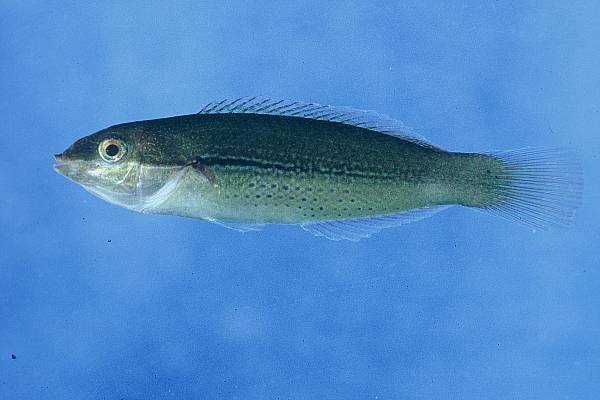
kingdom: Animalia
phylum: Chordata
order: Perciformes
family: Labridae
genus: Stethojulis
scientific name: Stethojulis interrupta
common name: Cutribbon wrasse
